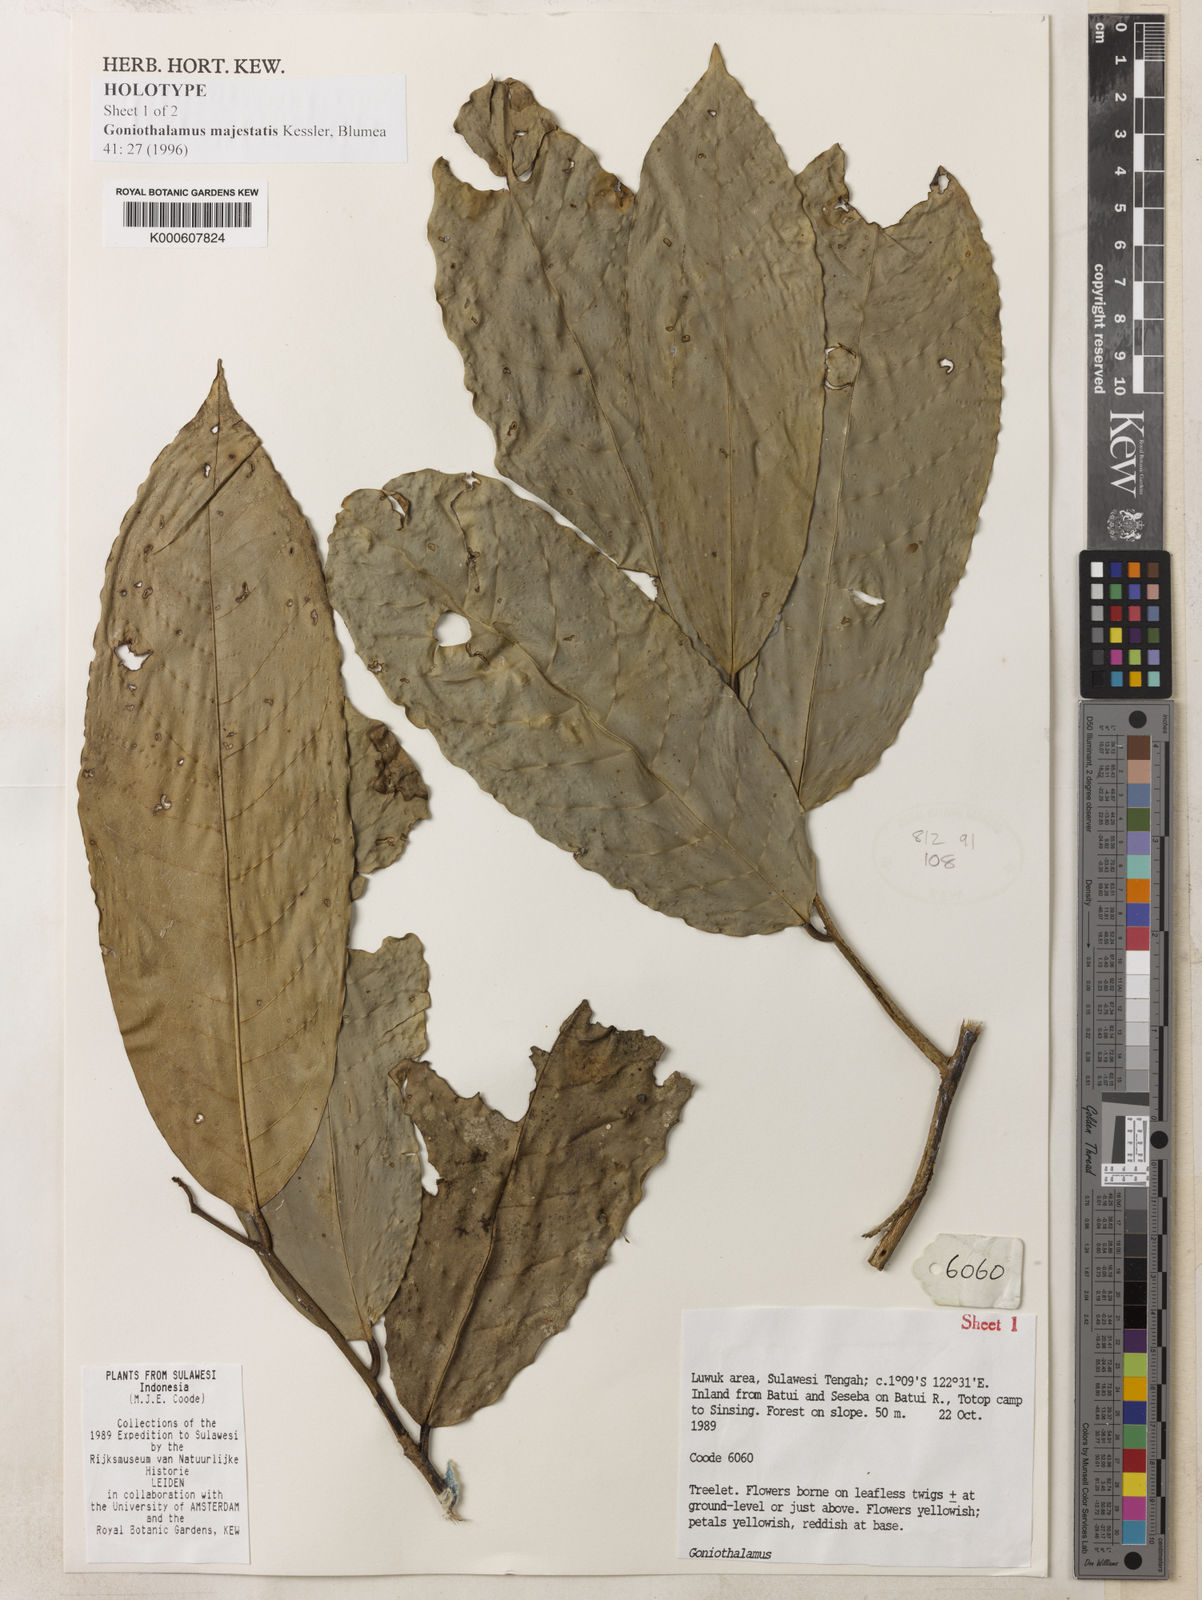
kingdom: Plantae
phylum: Tracheophyta
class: Magnoliopsida
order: Magnoliales
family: Annonaceae
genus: Goniothalamus
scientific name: Goniothalamus majestatis
